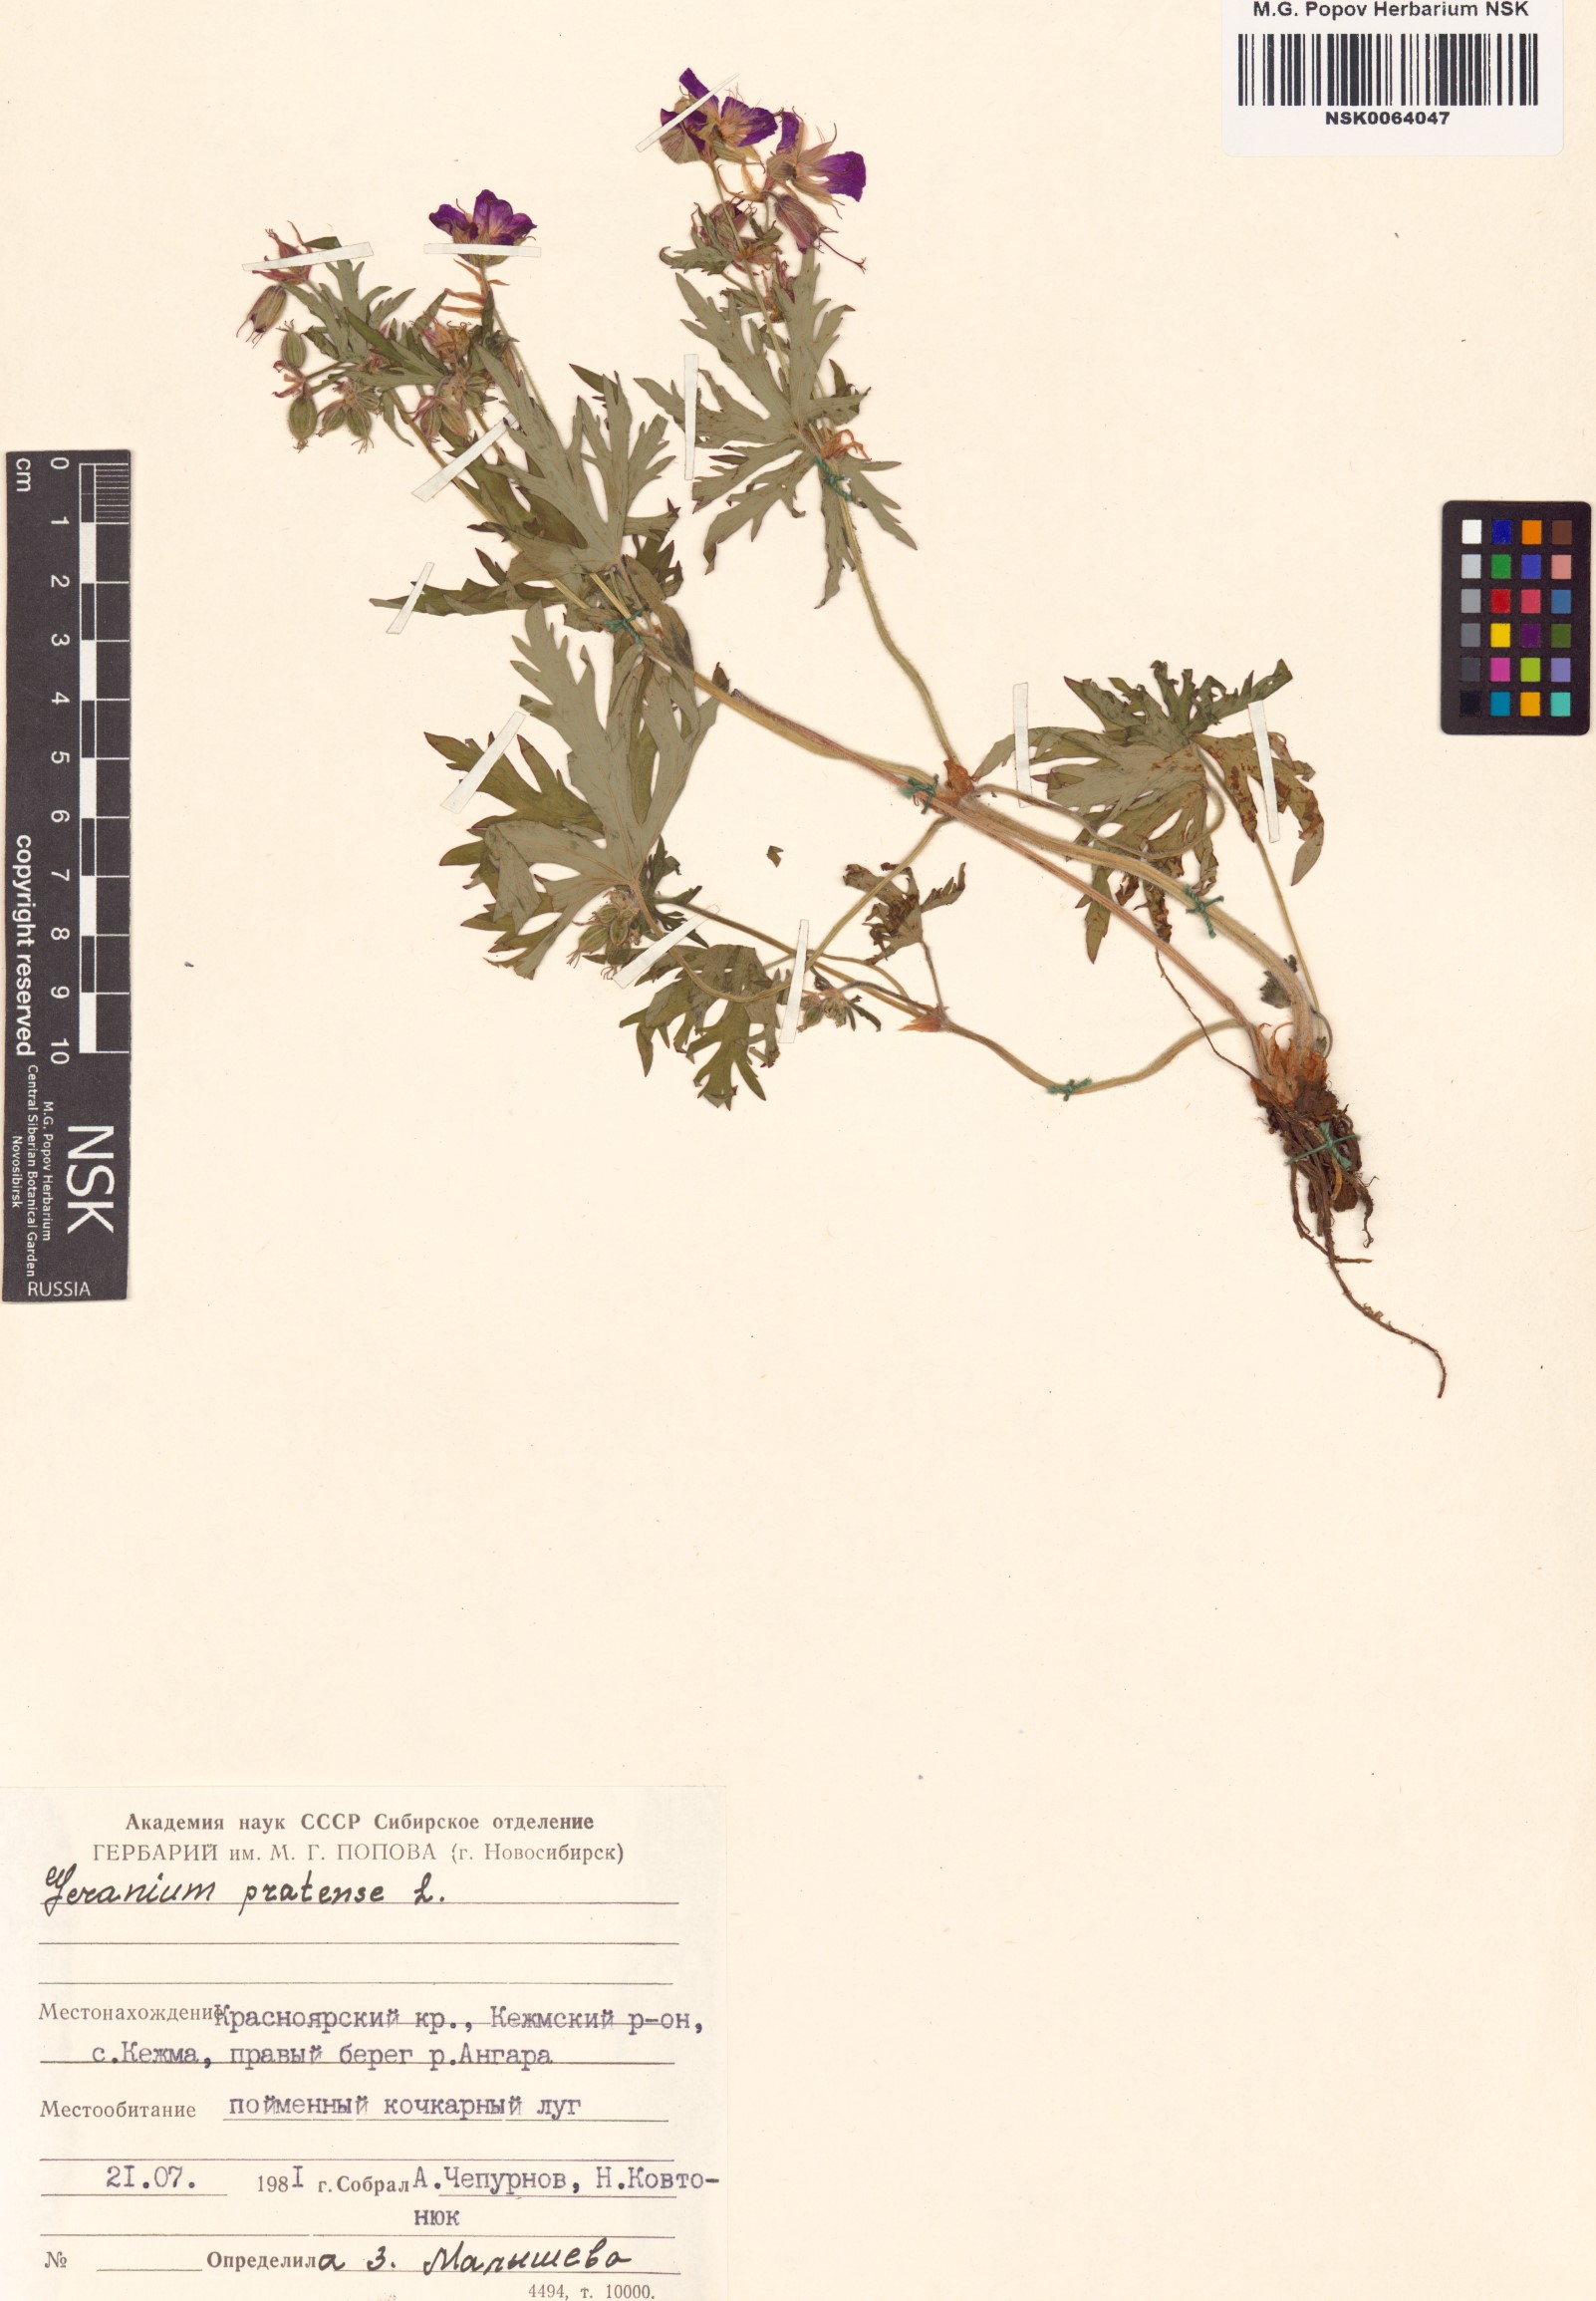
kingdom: Plantae
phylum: Tracheophyta
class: Magnoliopsida
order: Geraniales
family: Geraniaceae
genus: Geranium
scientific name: Geranium pratense
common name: Meadow crane's-bill
